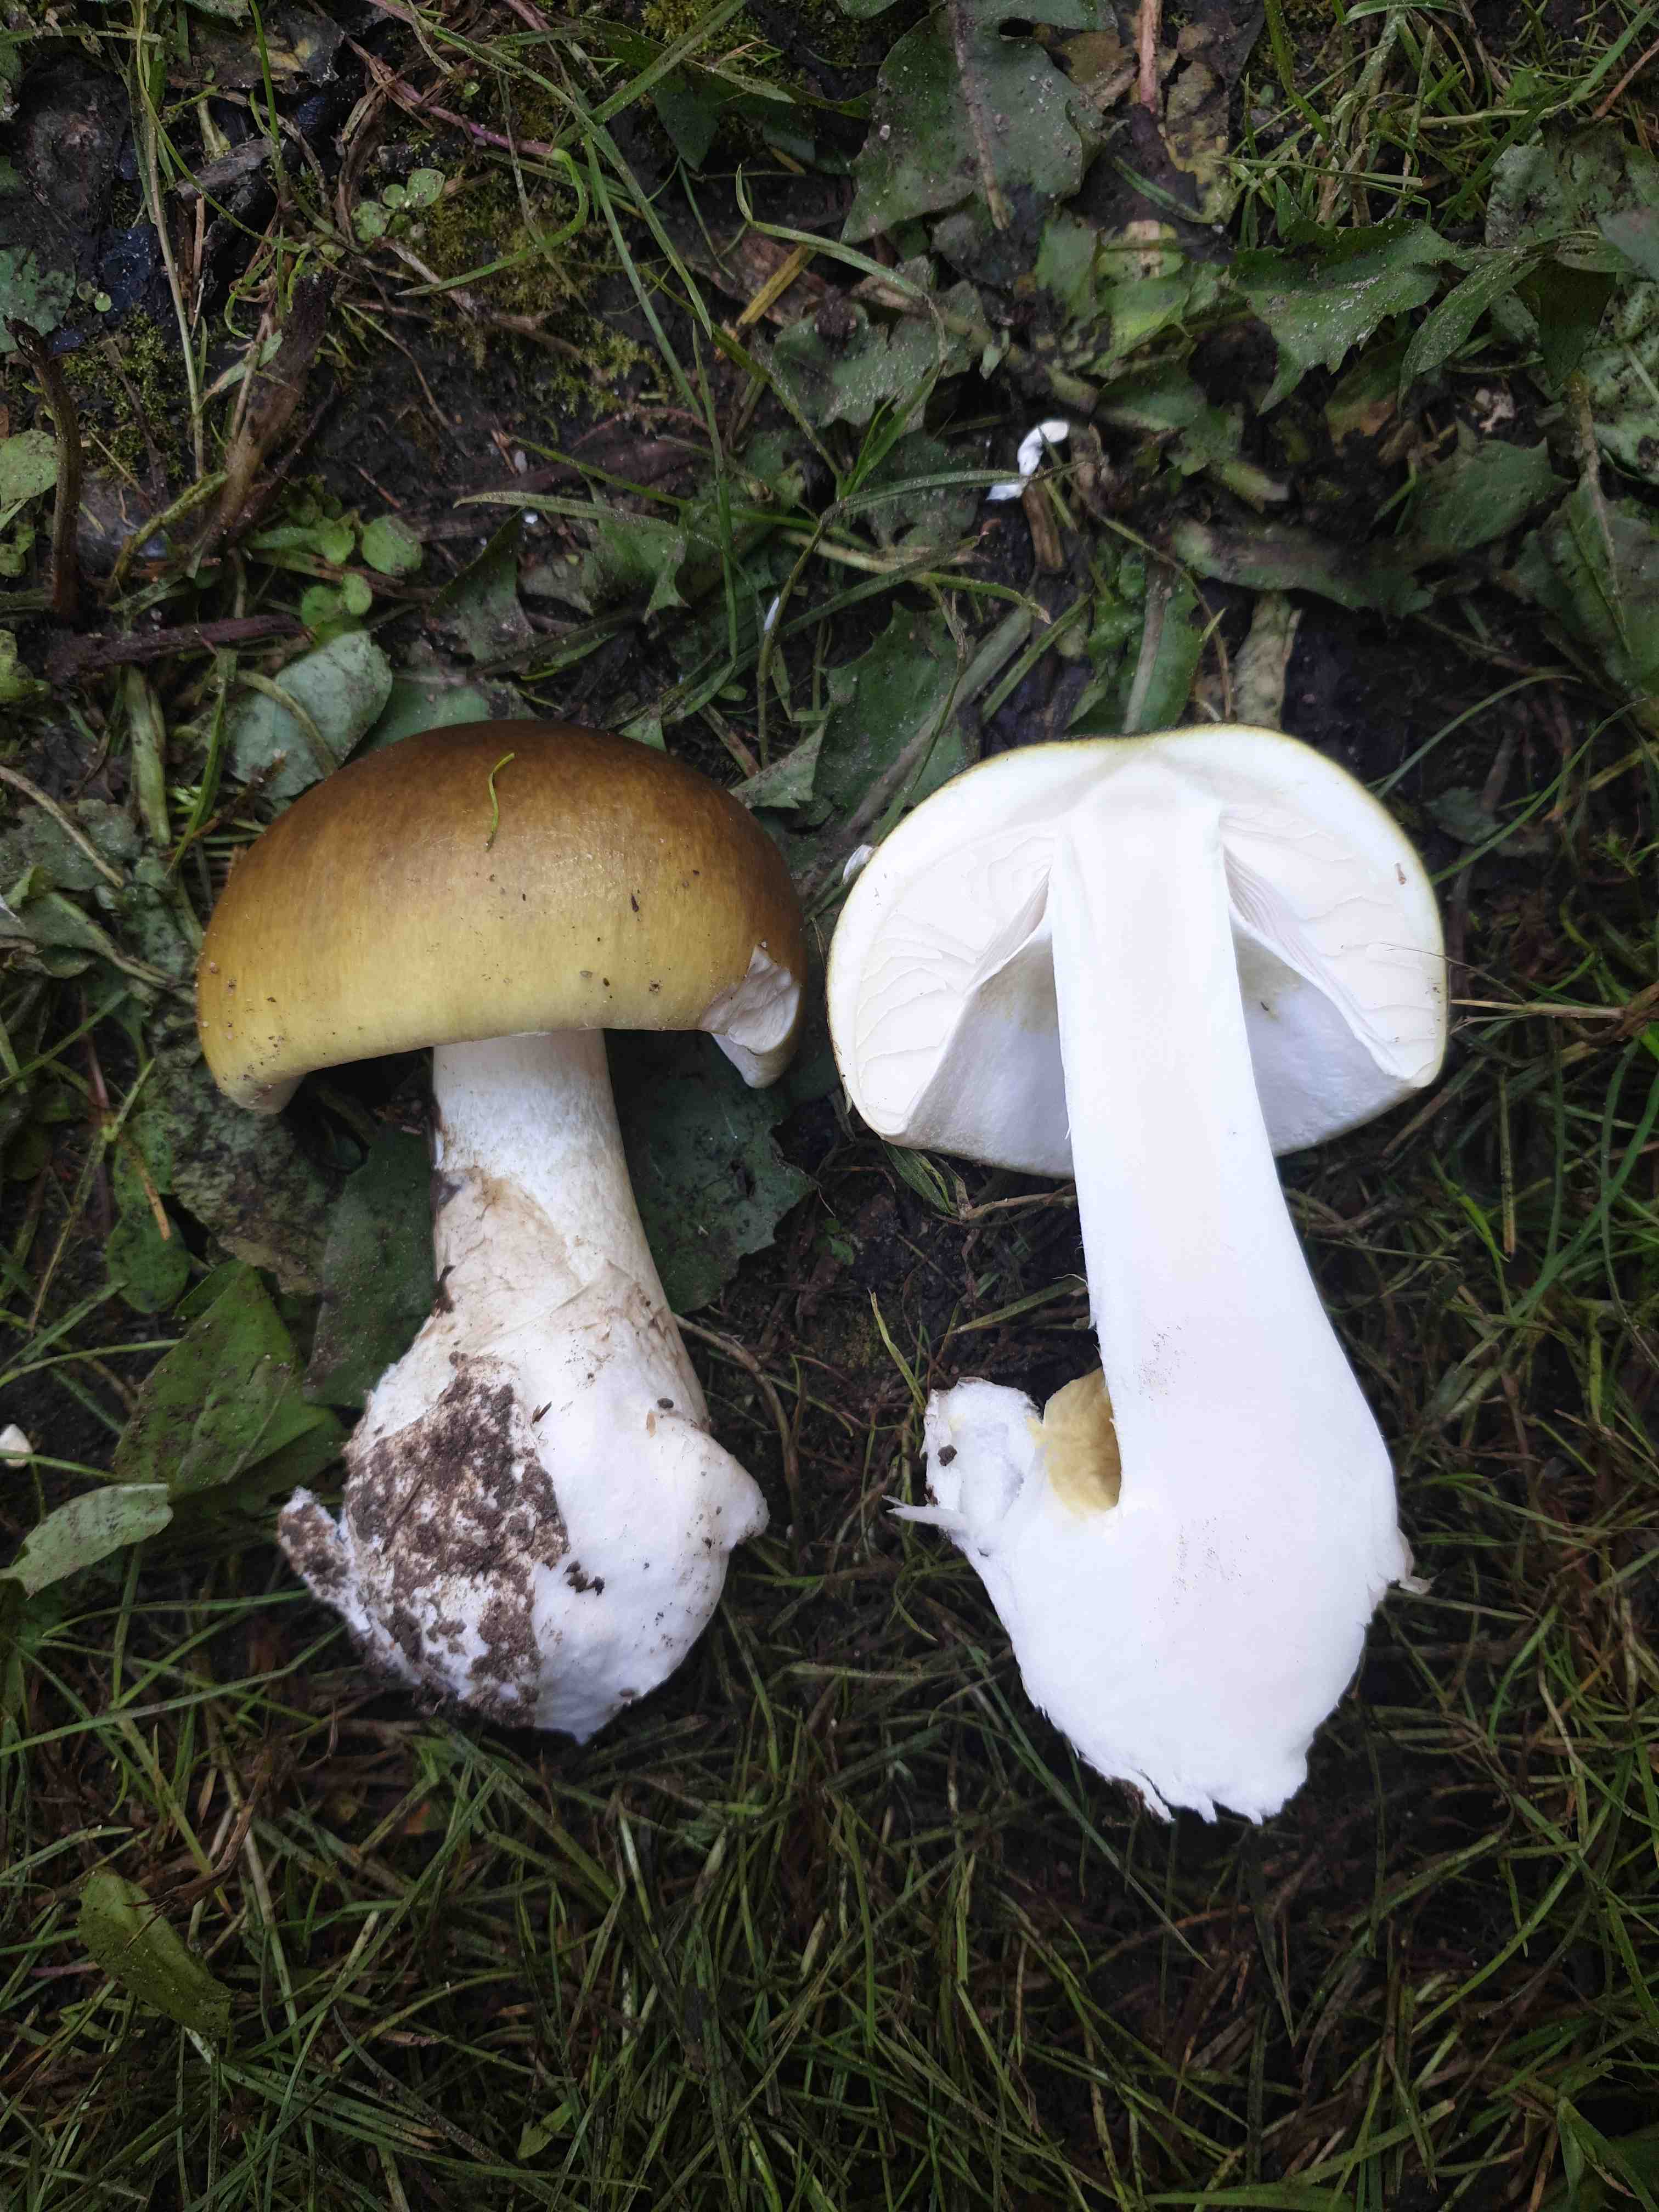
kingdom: Fungi
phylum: Basidiomycota
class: Agaricomycetes
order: Agaricales
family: Amanitaceae
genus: Amanita
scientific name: Amanita phalloides
